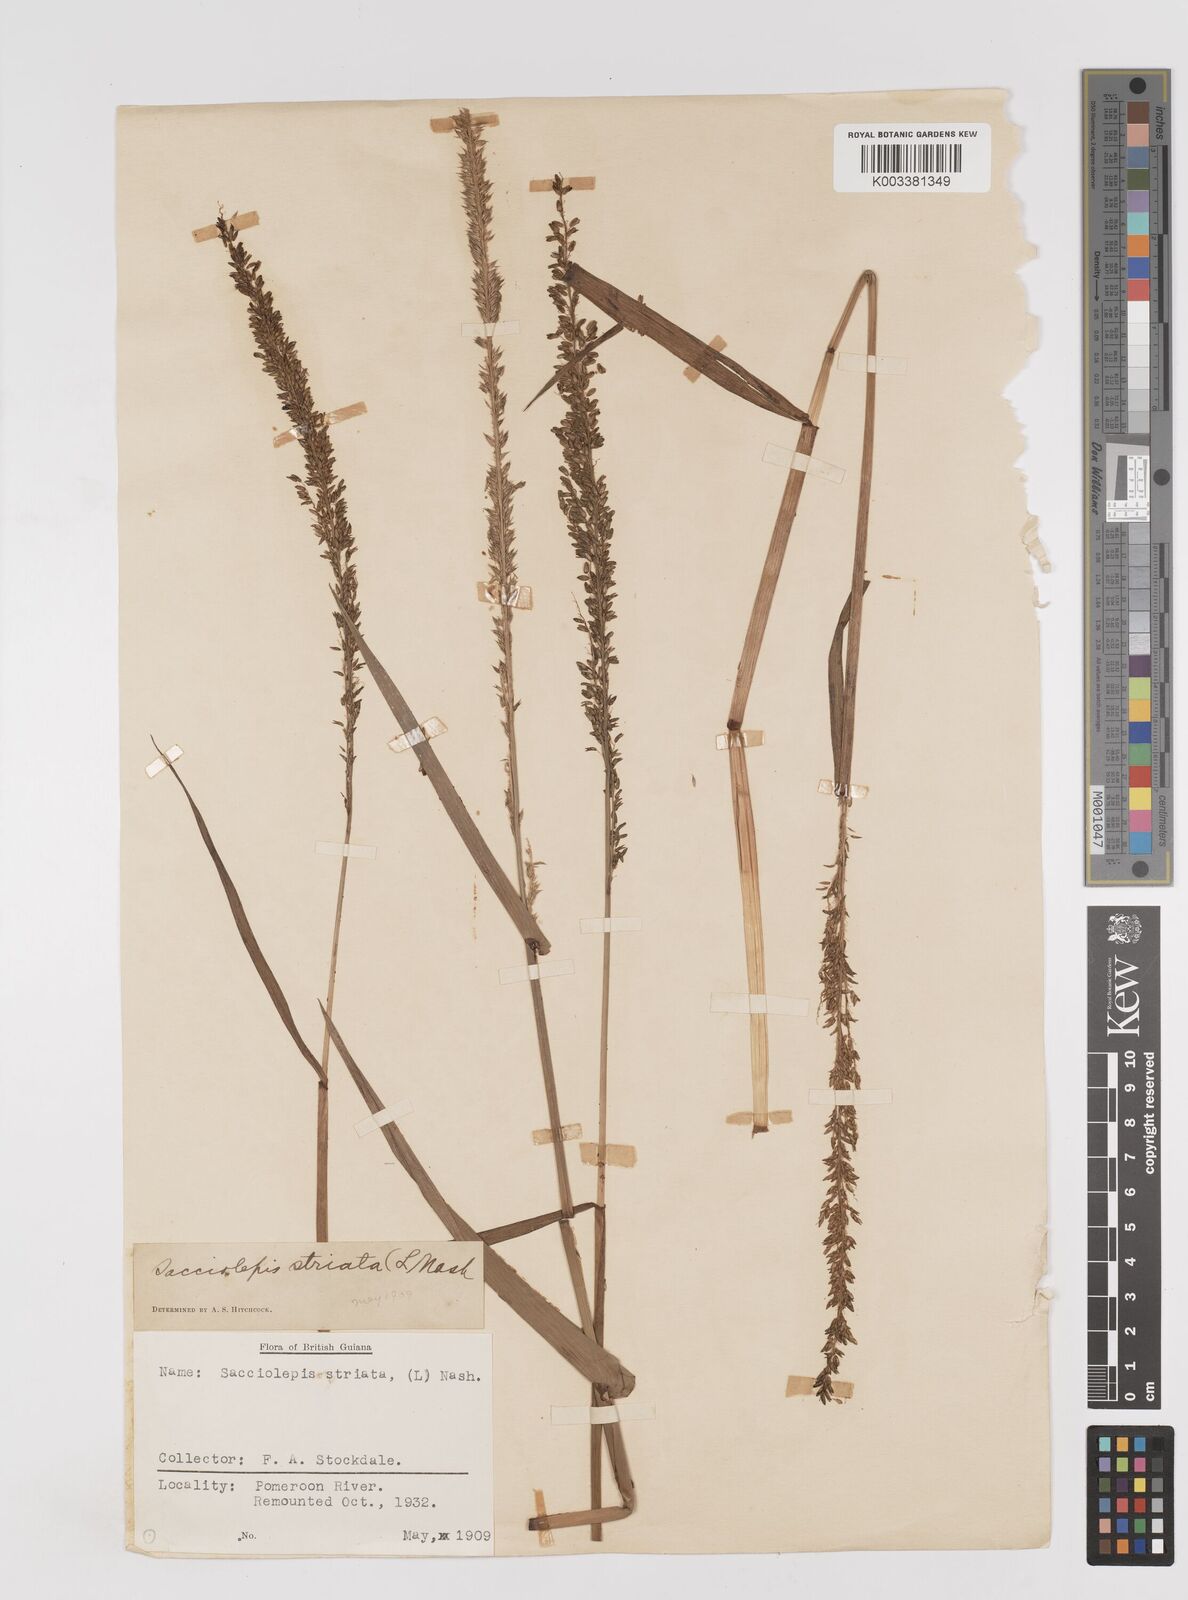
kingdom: Plantae
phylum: Tracheophyta
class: Liliopsida
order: Poales
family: Poaceae
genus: Sacciolepis
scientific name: Sacciolepis striata
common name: American cupscale
